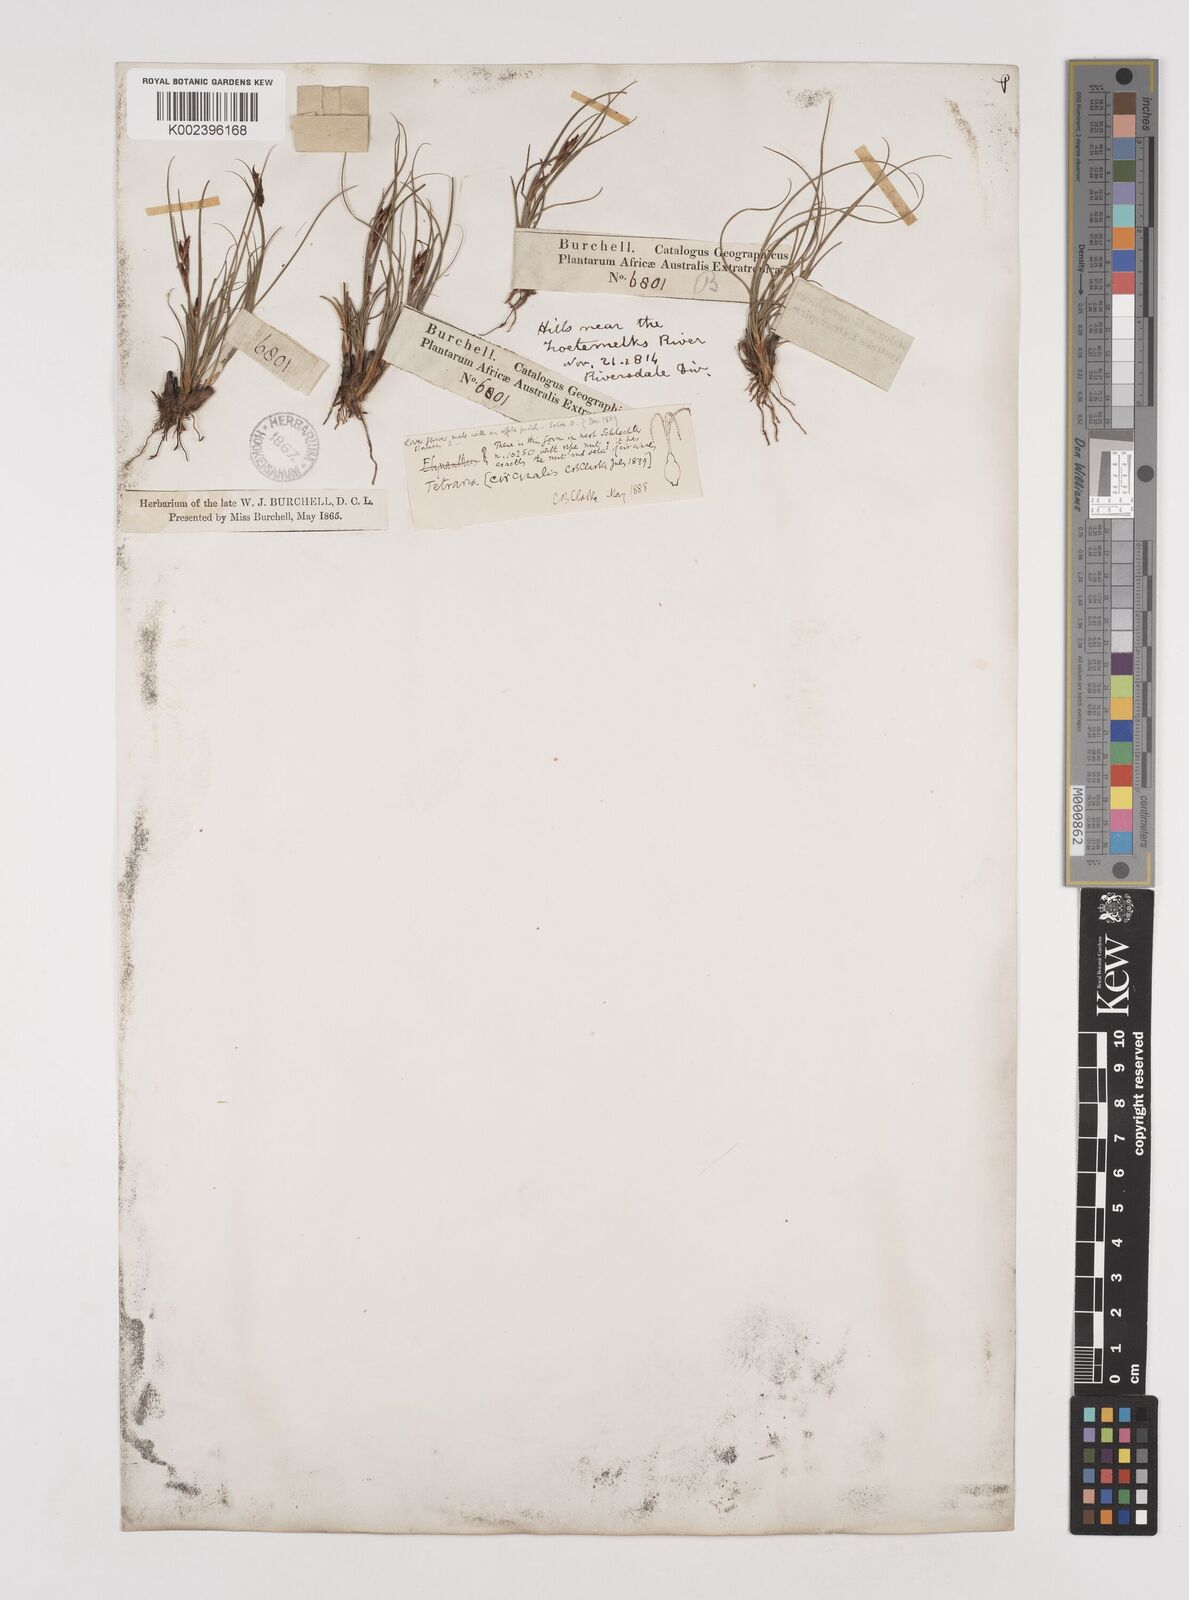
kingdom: Plantae
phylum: Tracheophyta
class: Liliopsida
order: Poales
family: Cyperaceae
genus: Tetraria
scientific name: Tetraria microstachys
